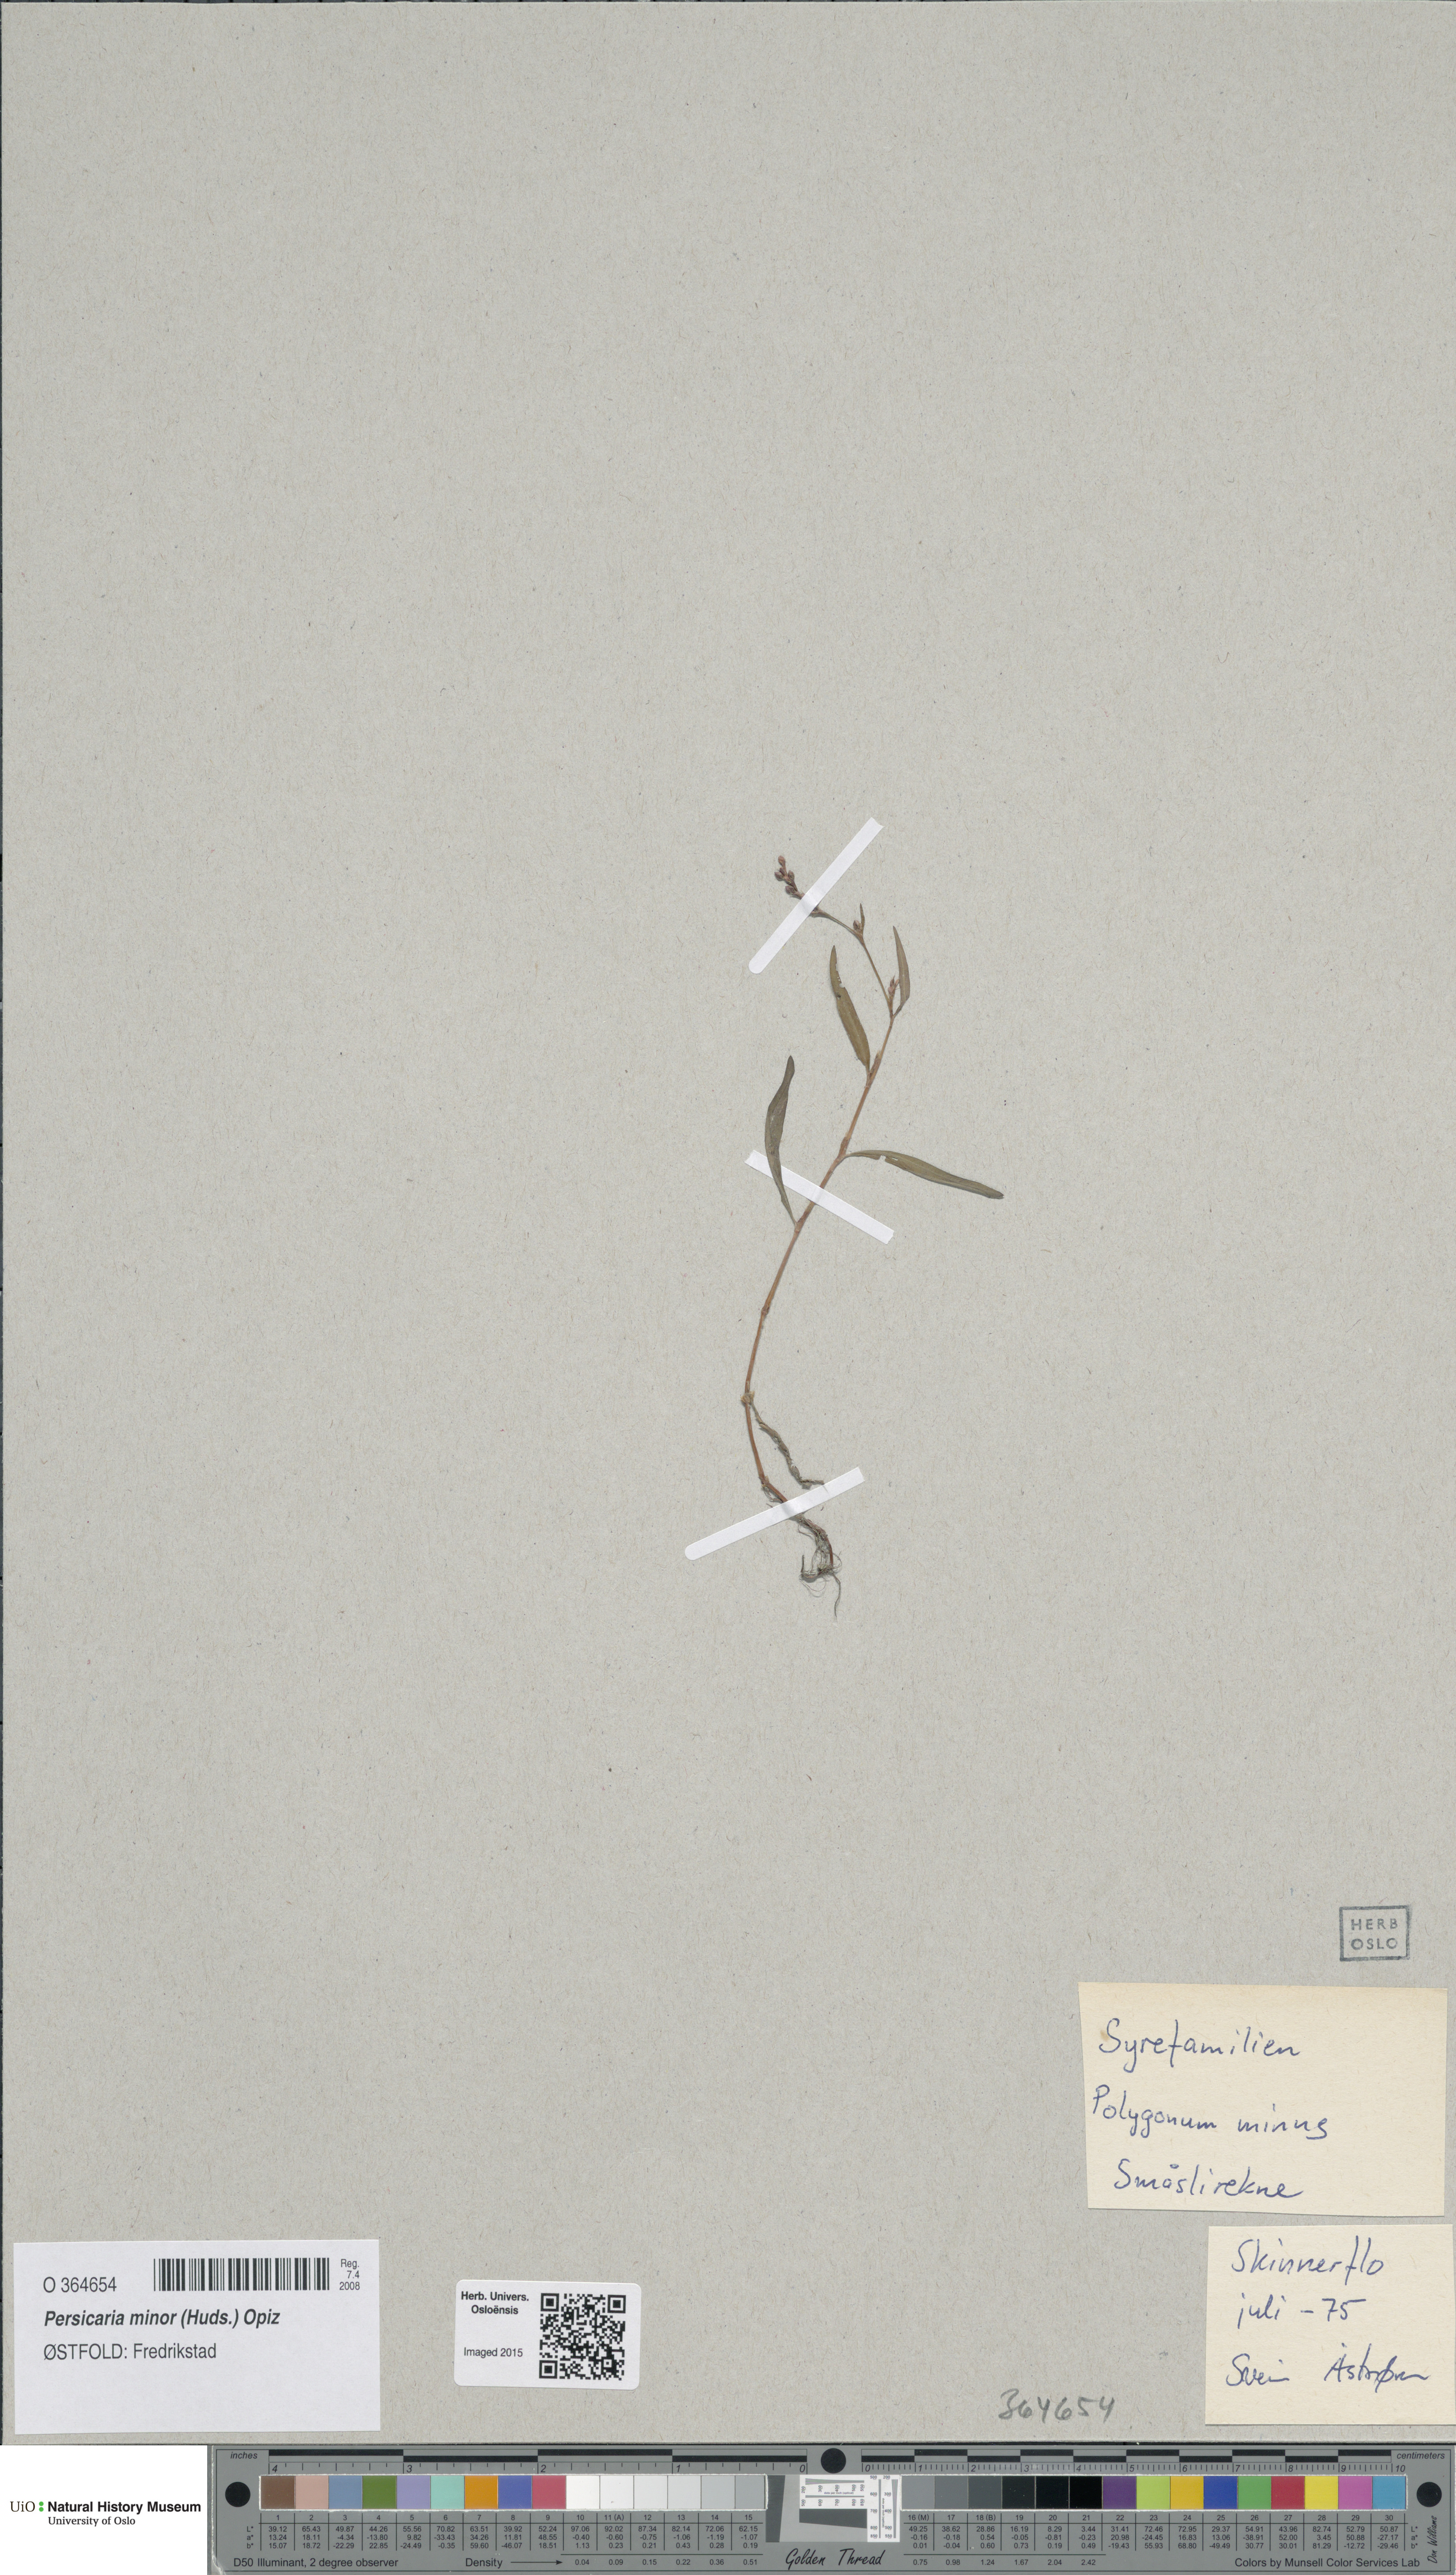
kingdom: Plantae
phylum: Tracheophyta
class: Magnoliopsida
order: Caryophyllales
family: Polygonaceae
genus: Persicaria
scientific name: Persicaria minor
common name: Small water-pepper
